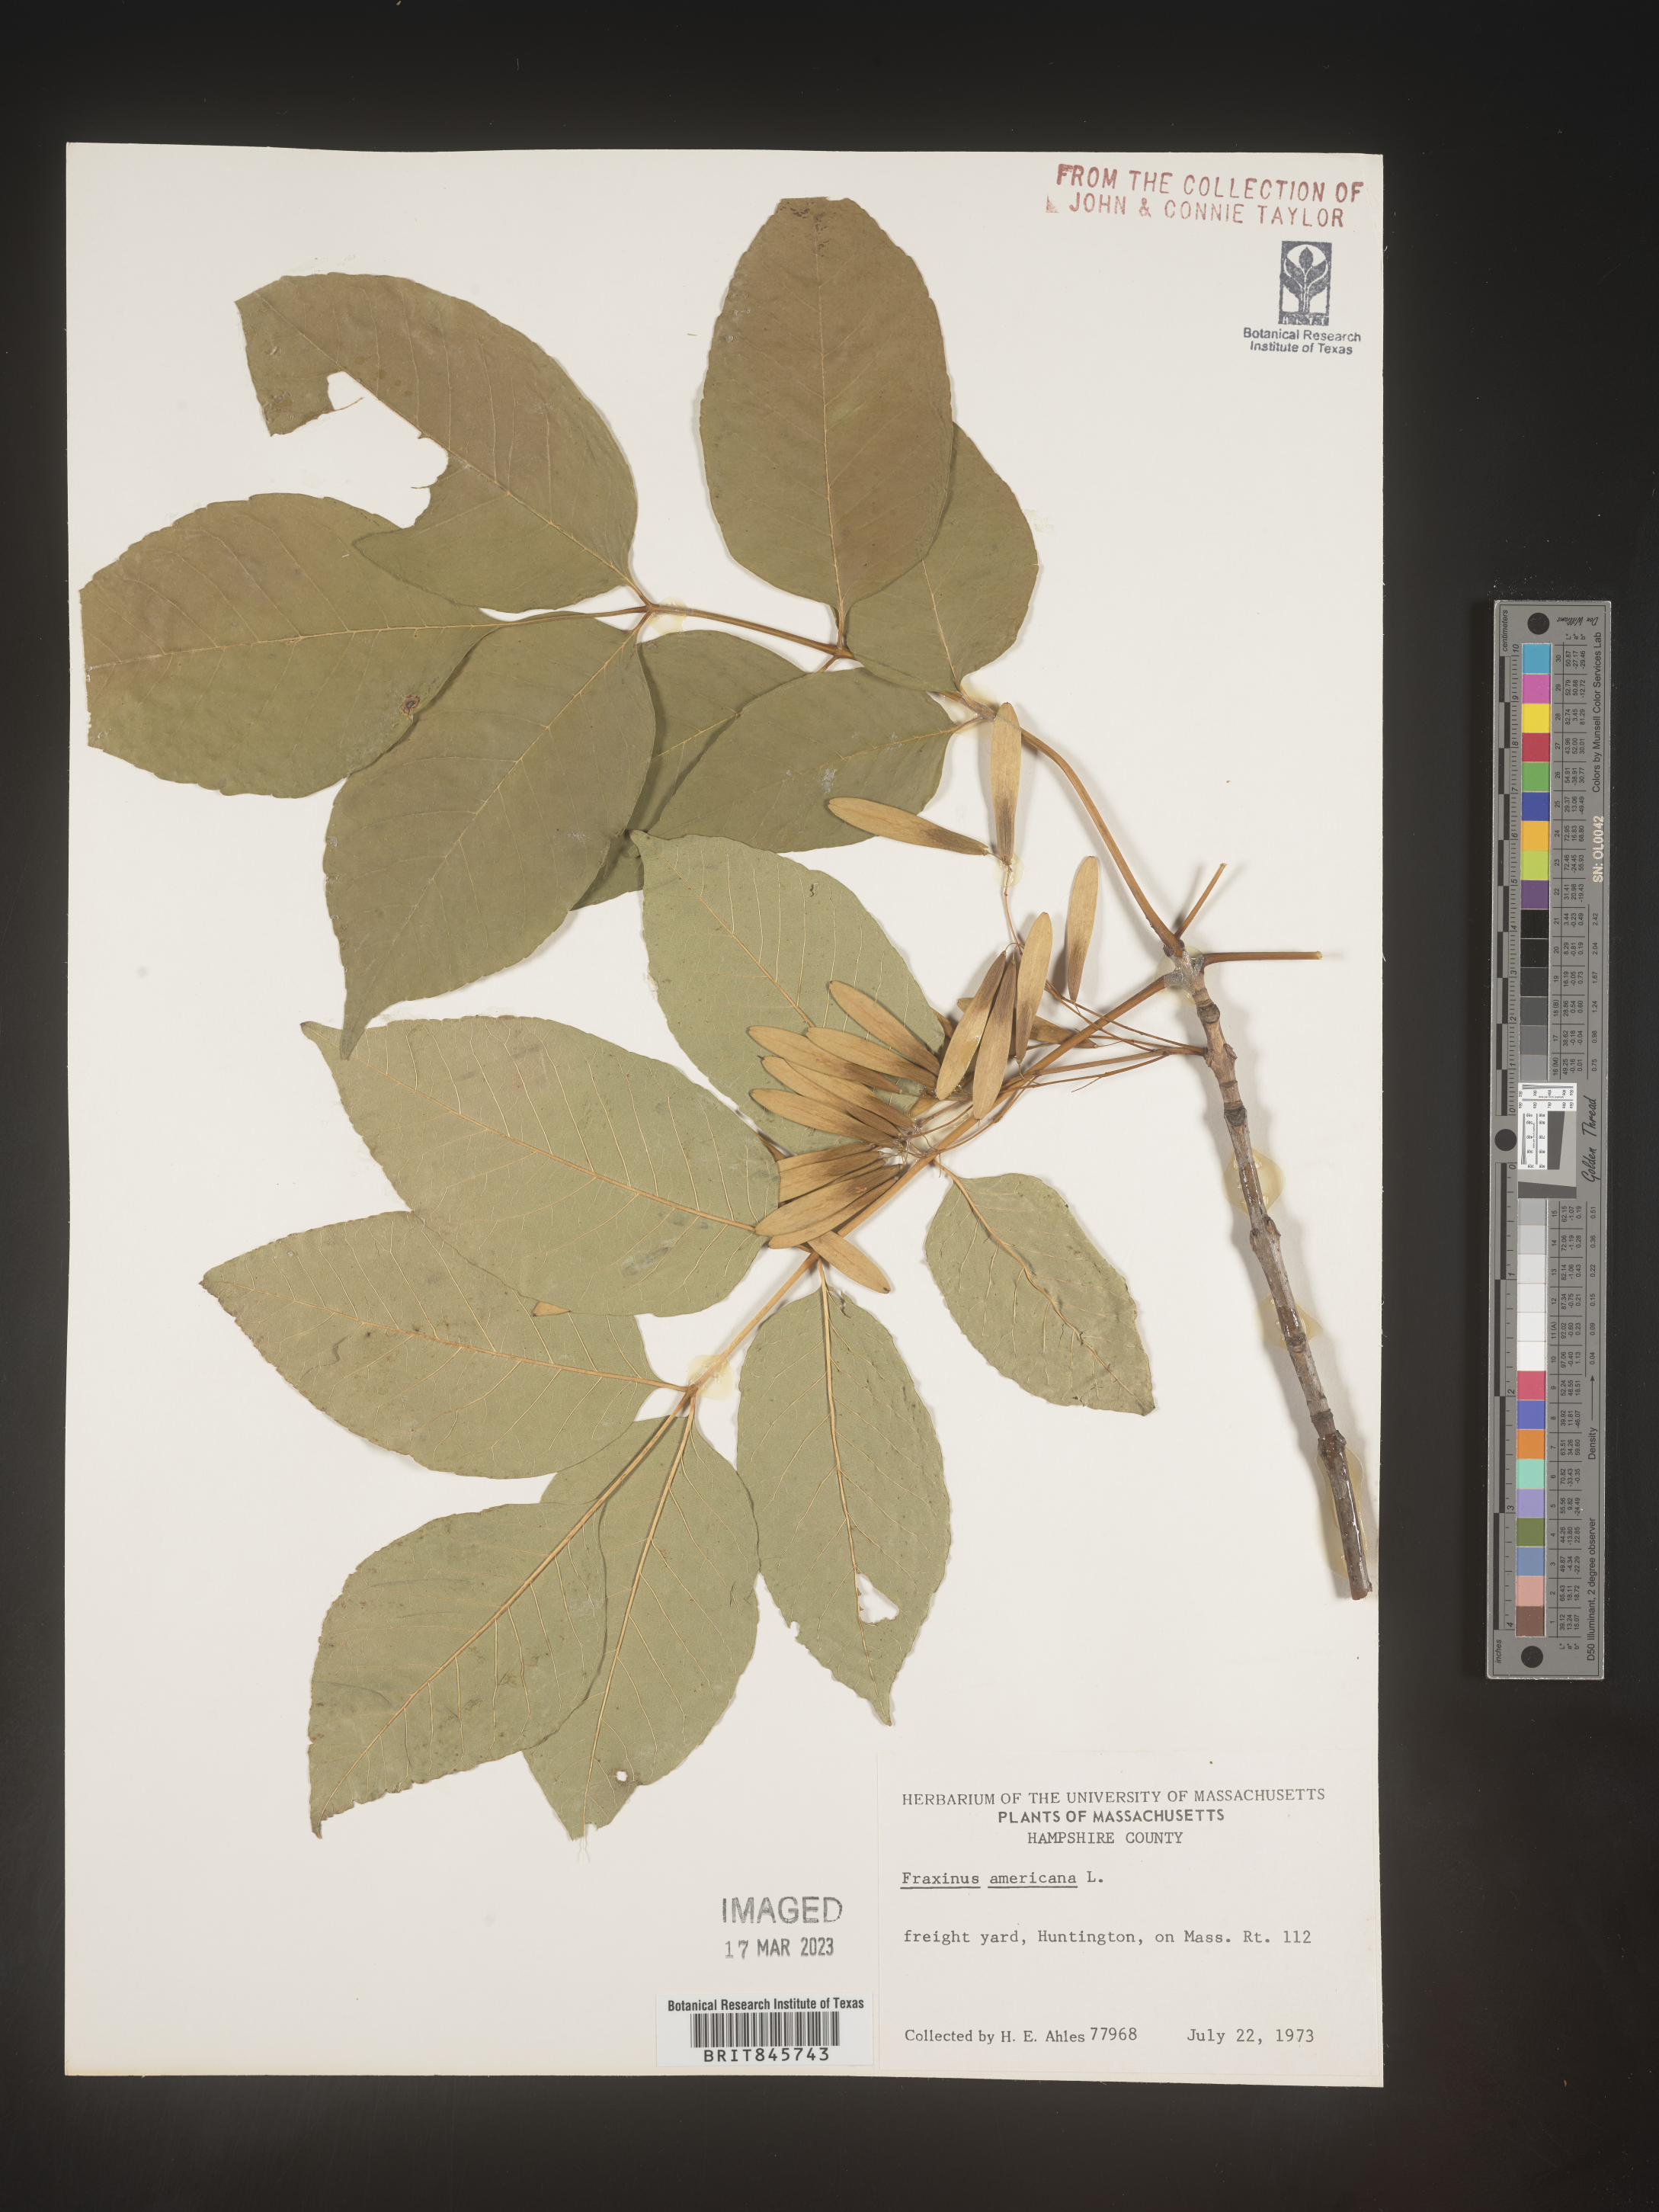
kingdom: Plantae
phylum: Tracheophyta
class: Magnoliopsida
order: Lamiales
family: Oleaceae
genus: Fraxinus
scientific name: Fraxinus americana
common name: White ash
